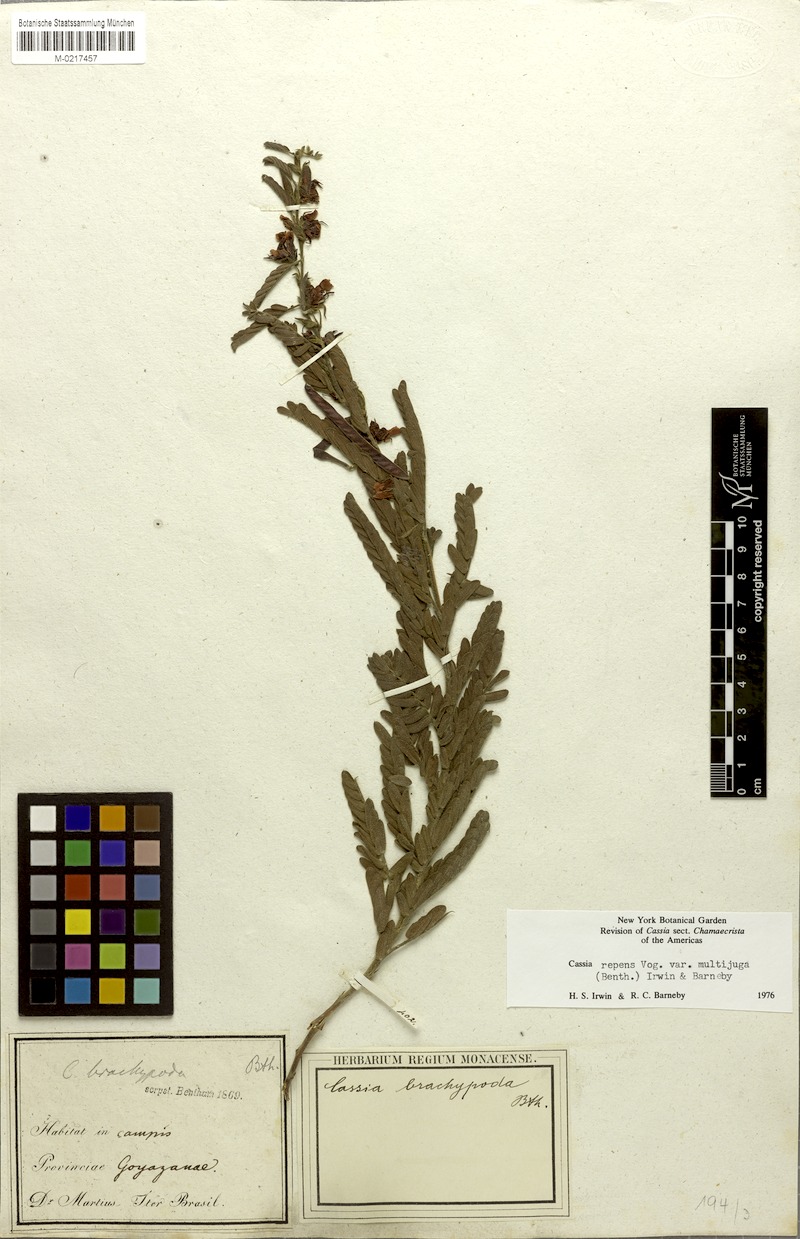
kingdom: Plantae
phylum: Tracheophyta
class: Magnoliopsida
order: Fabales
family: Fabaceae
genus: Chamaecrista
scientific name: Chamaecrista nictitans
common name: Sensitive cassia
